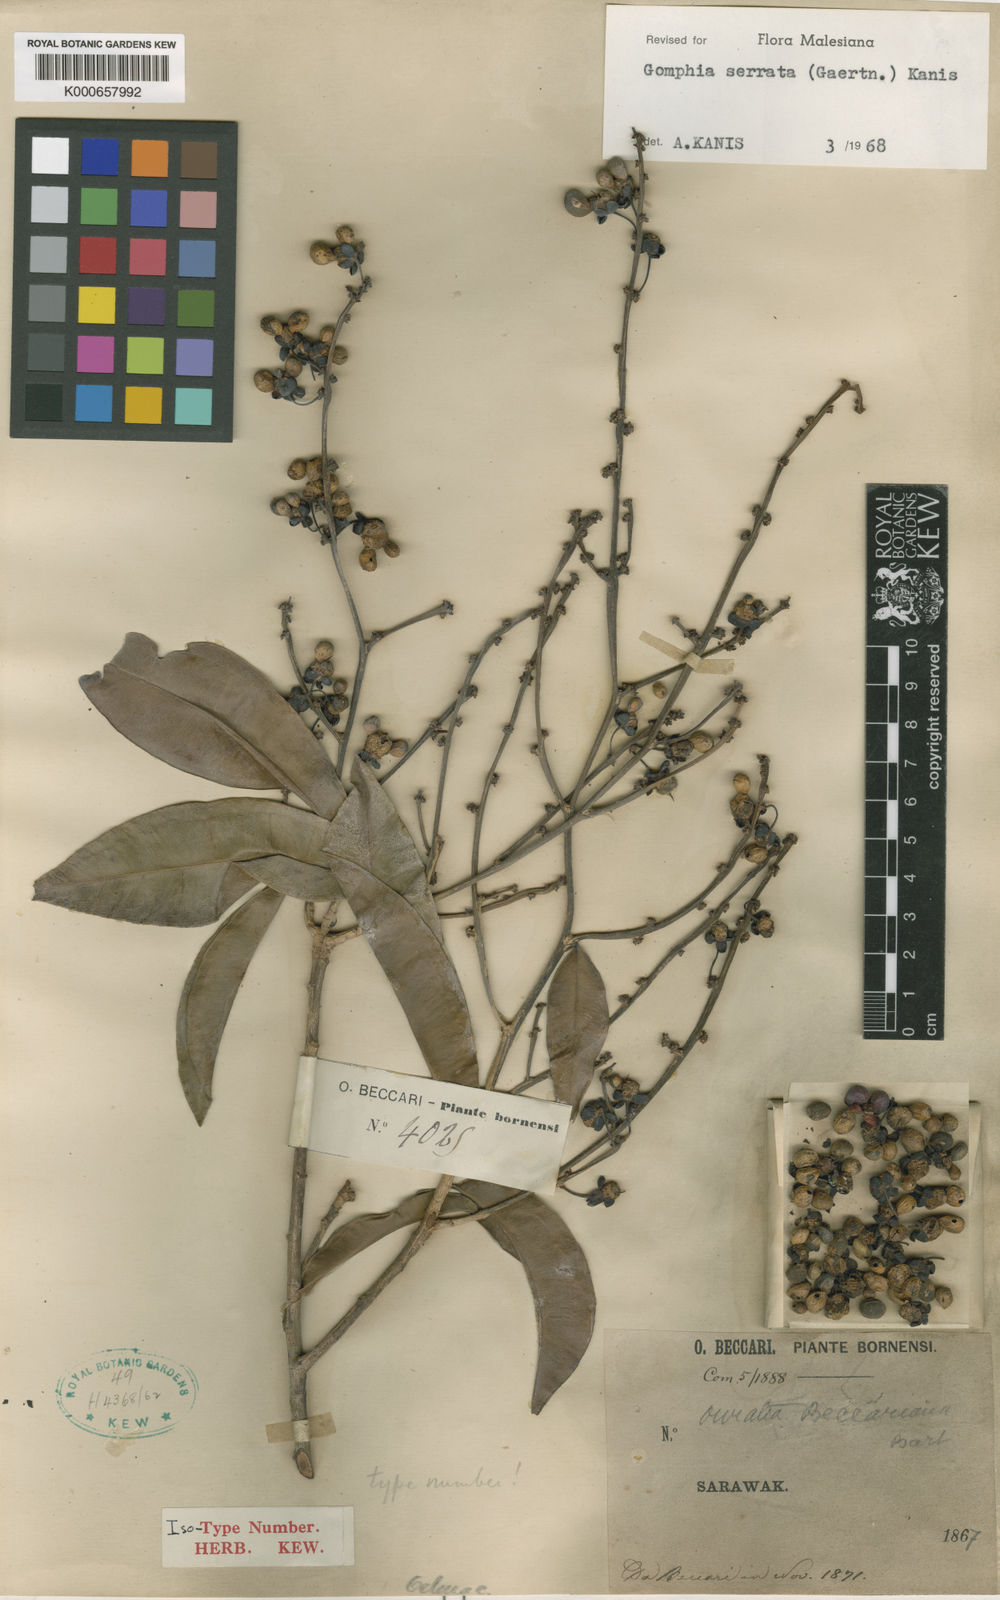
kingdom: Plantae
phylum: Tracheophyta
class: Magnoliopsida
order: Malpighiales
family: Ochnaceae
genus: Gomphia
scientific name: Gomphia serrata
